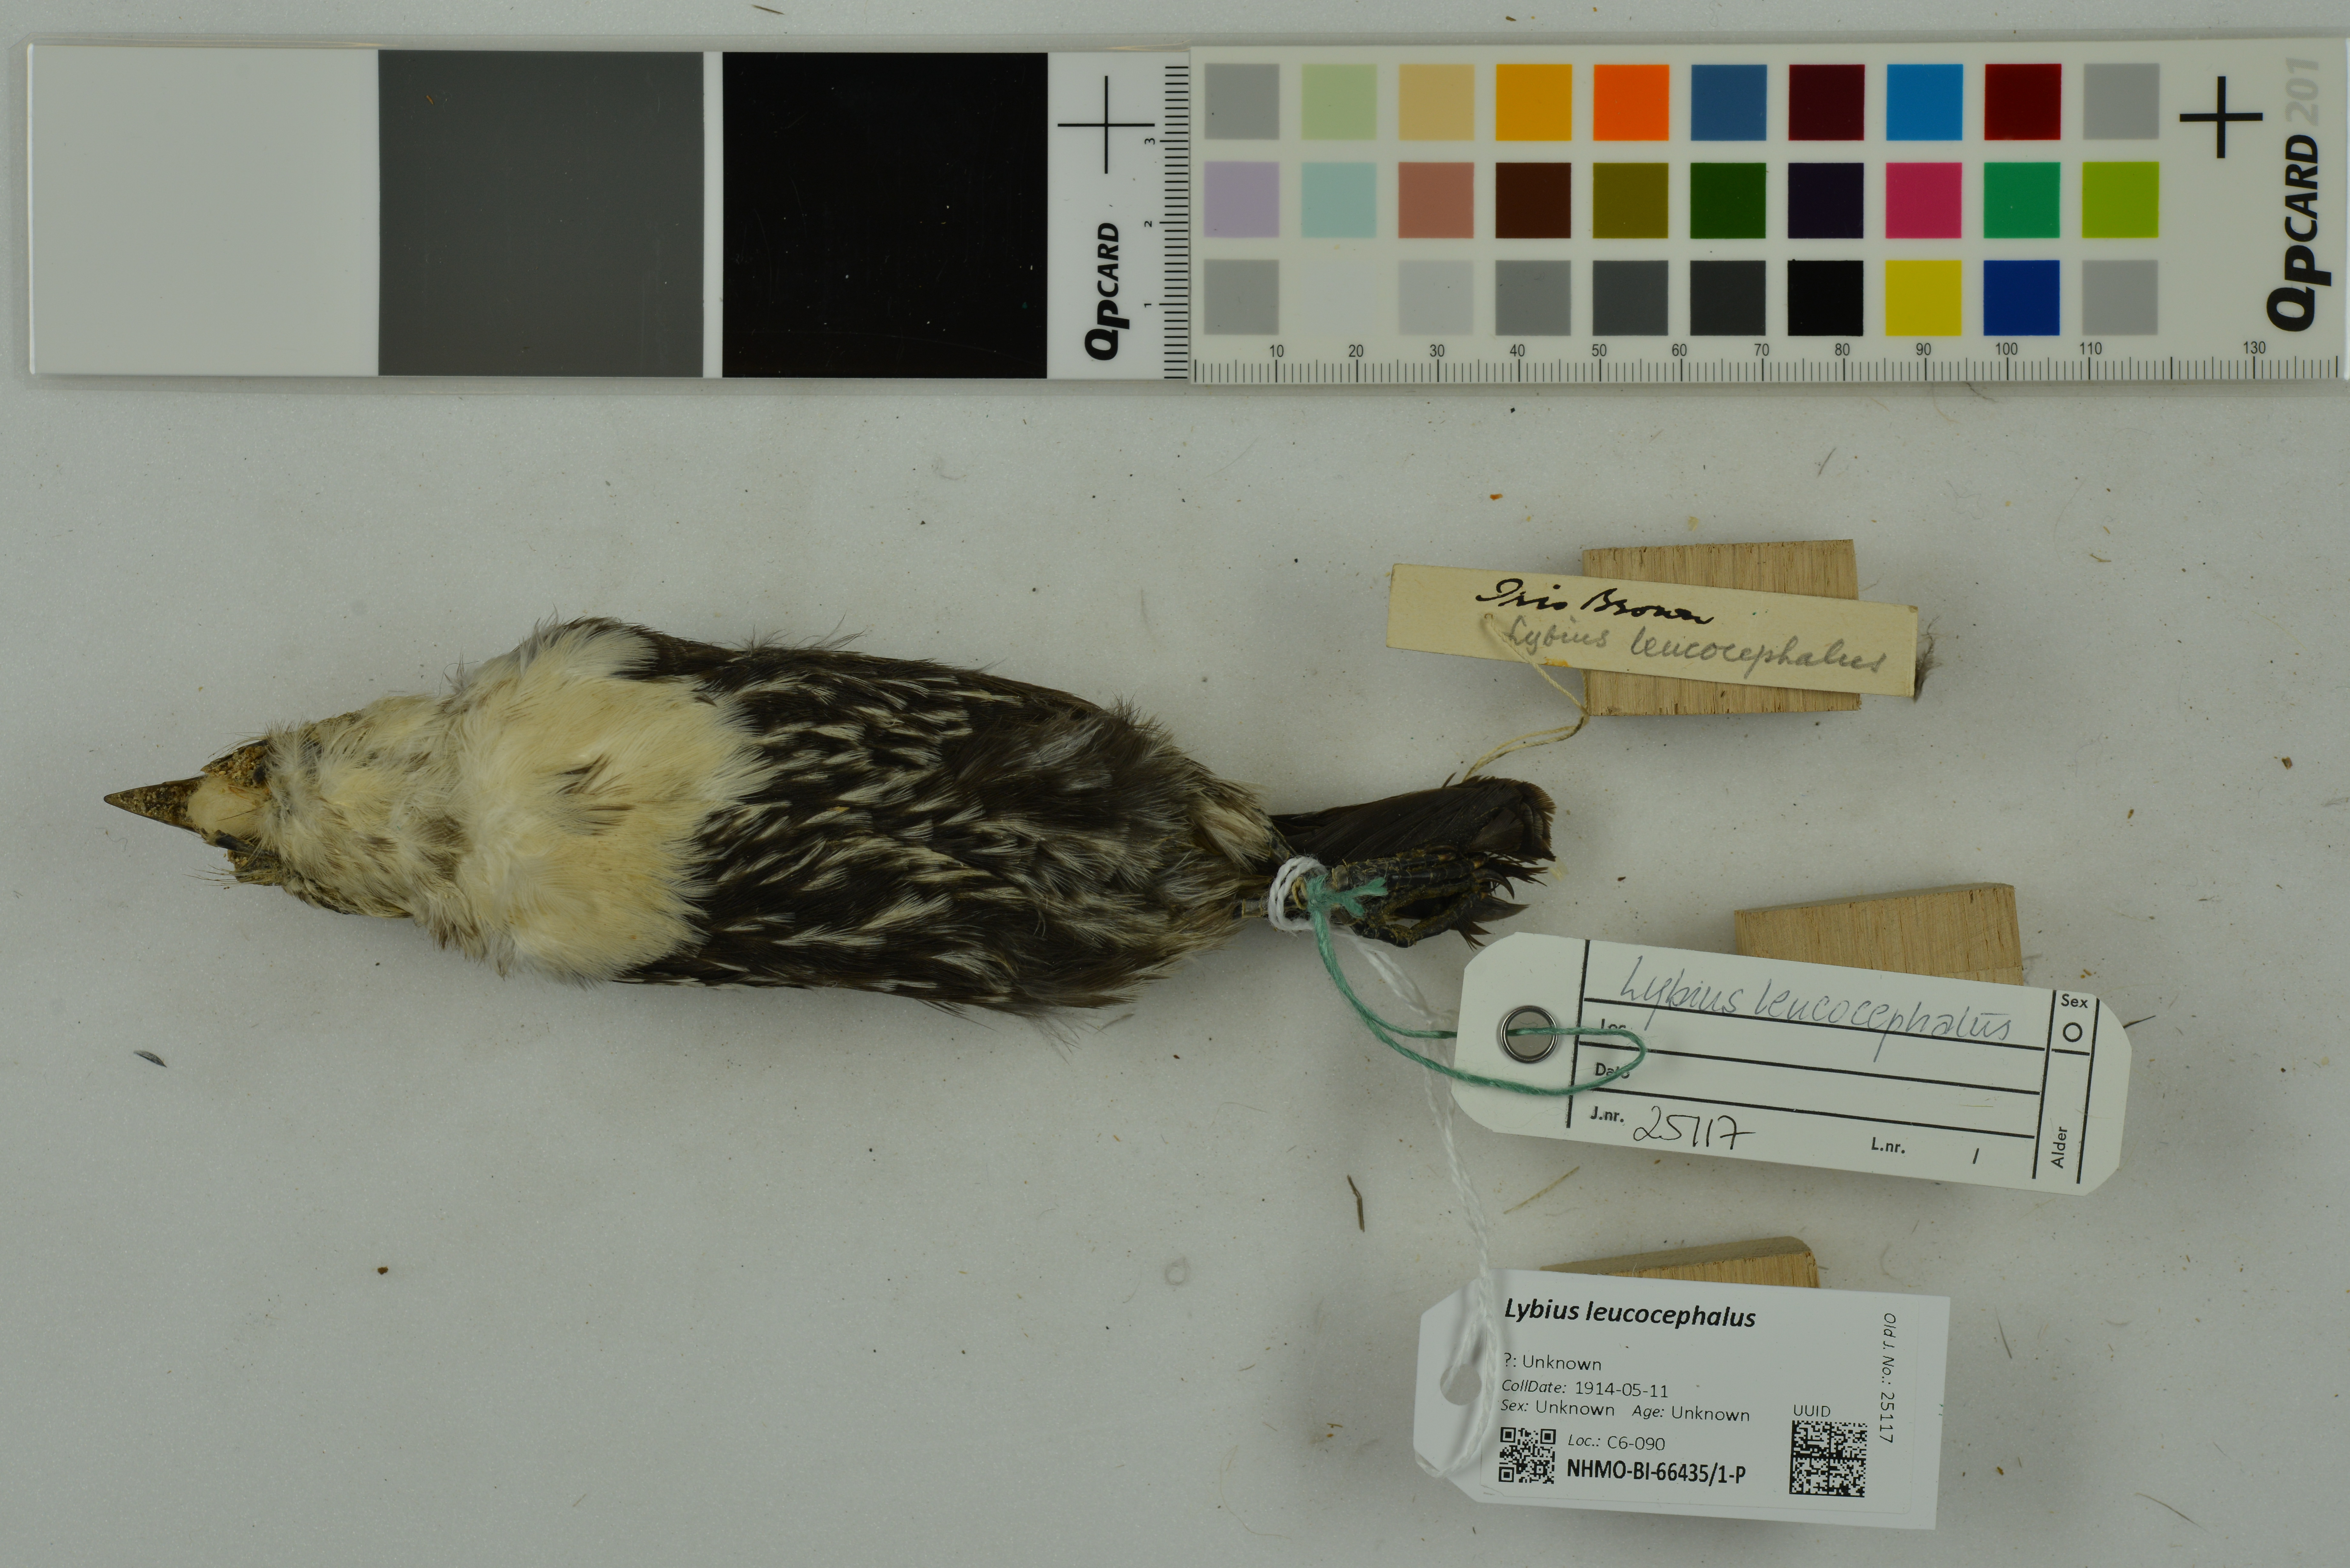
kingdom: Animalia
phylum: Chordata
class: Aves
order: Piciformes
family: Lybiidae
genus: Lybius
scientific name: Lybius leucocephalus
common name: White-headed barbet
